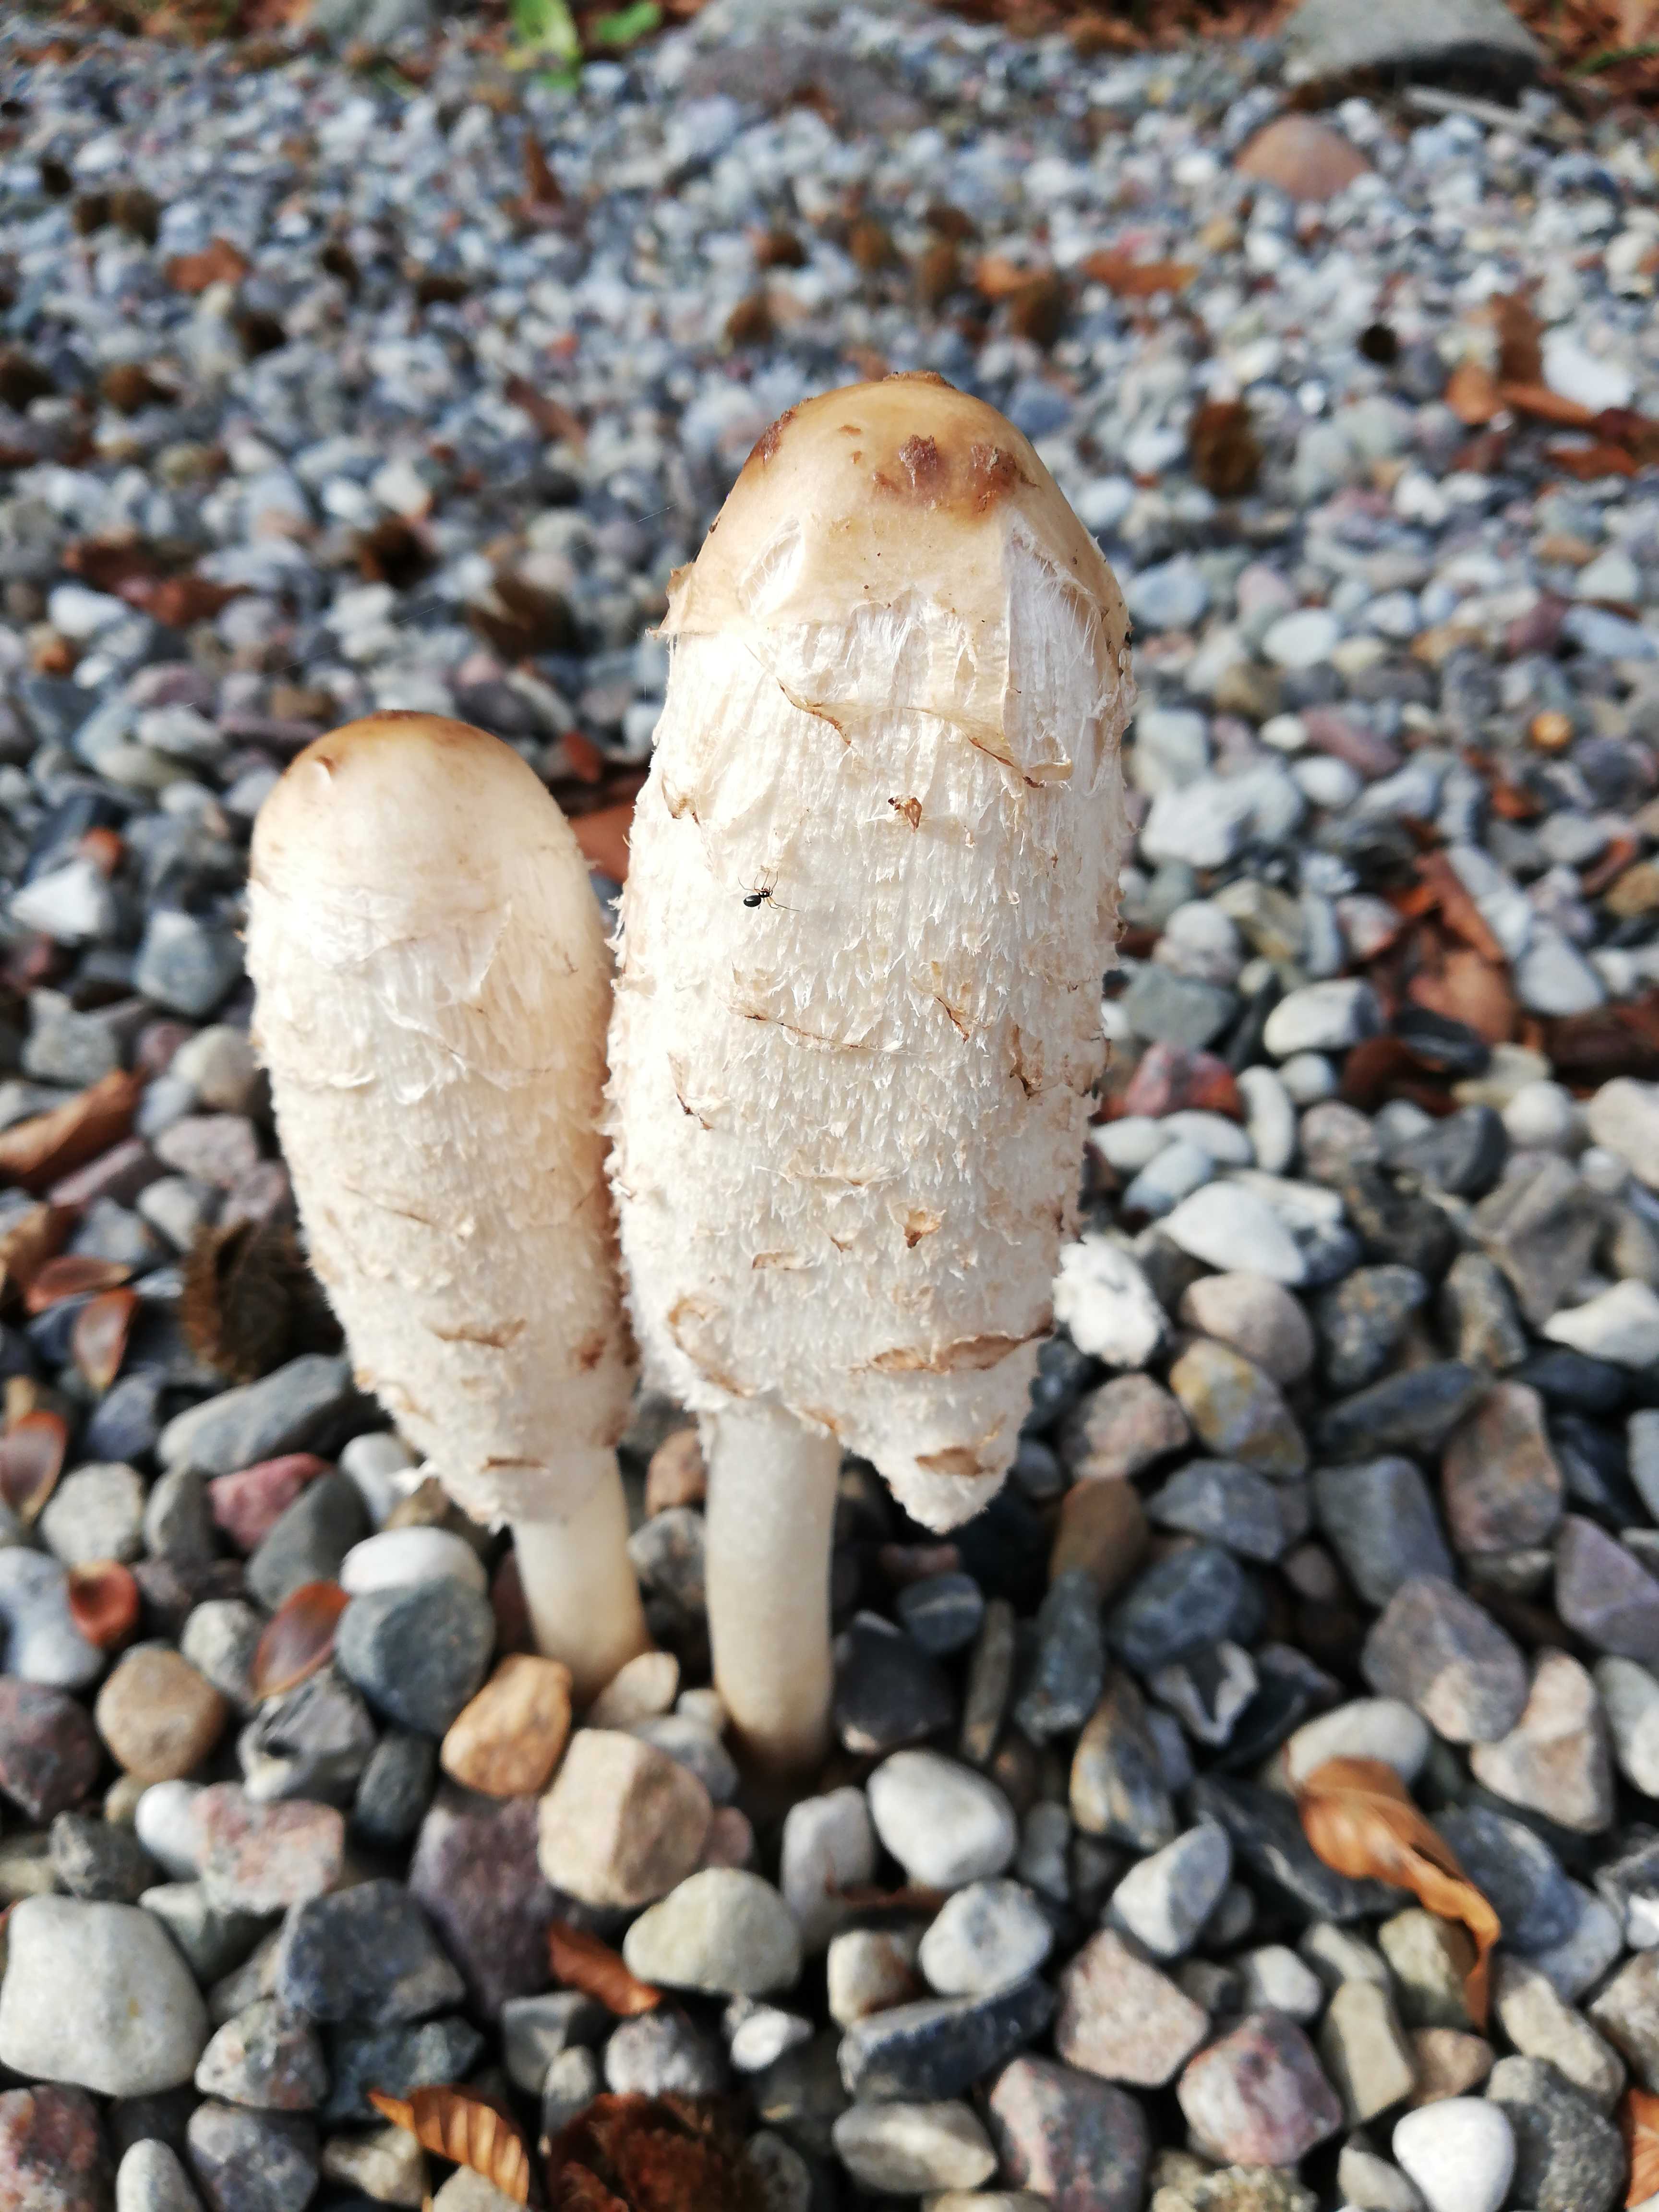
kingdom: Fungi
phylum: Basidiomycota
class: Agaricomycetes
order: Agaricales
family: Agaricaceae
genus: Coprinus
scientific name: Coprinus comatus
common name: stor parykhat
